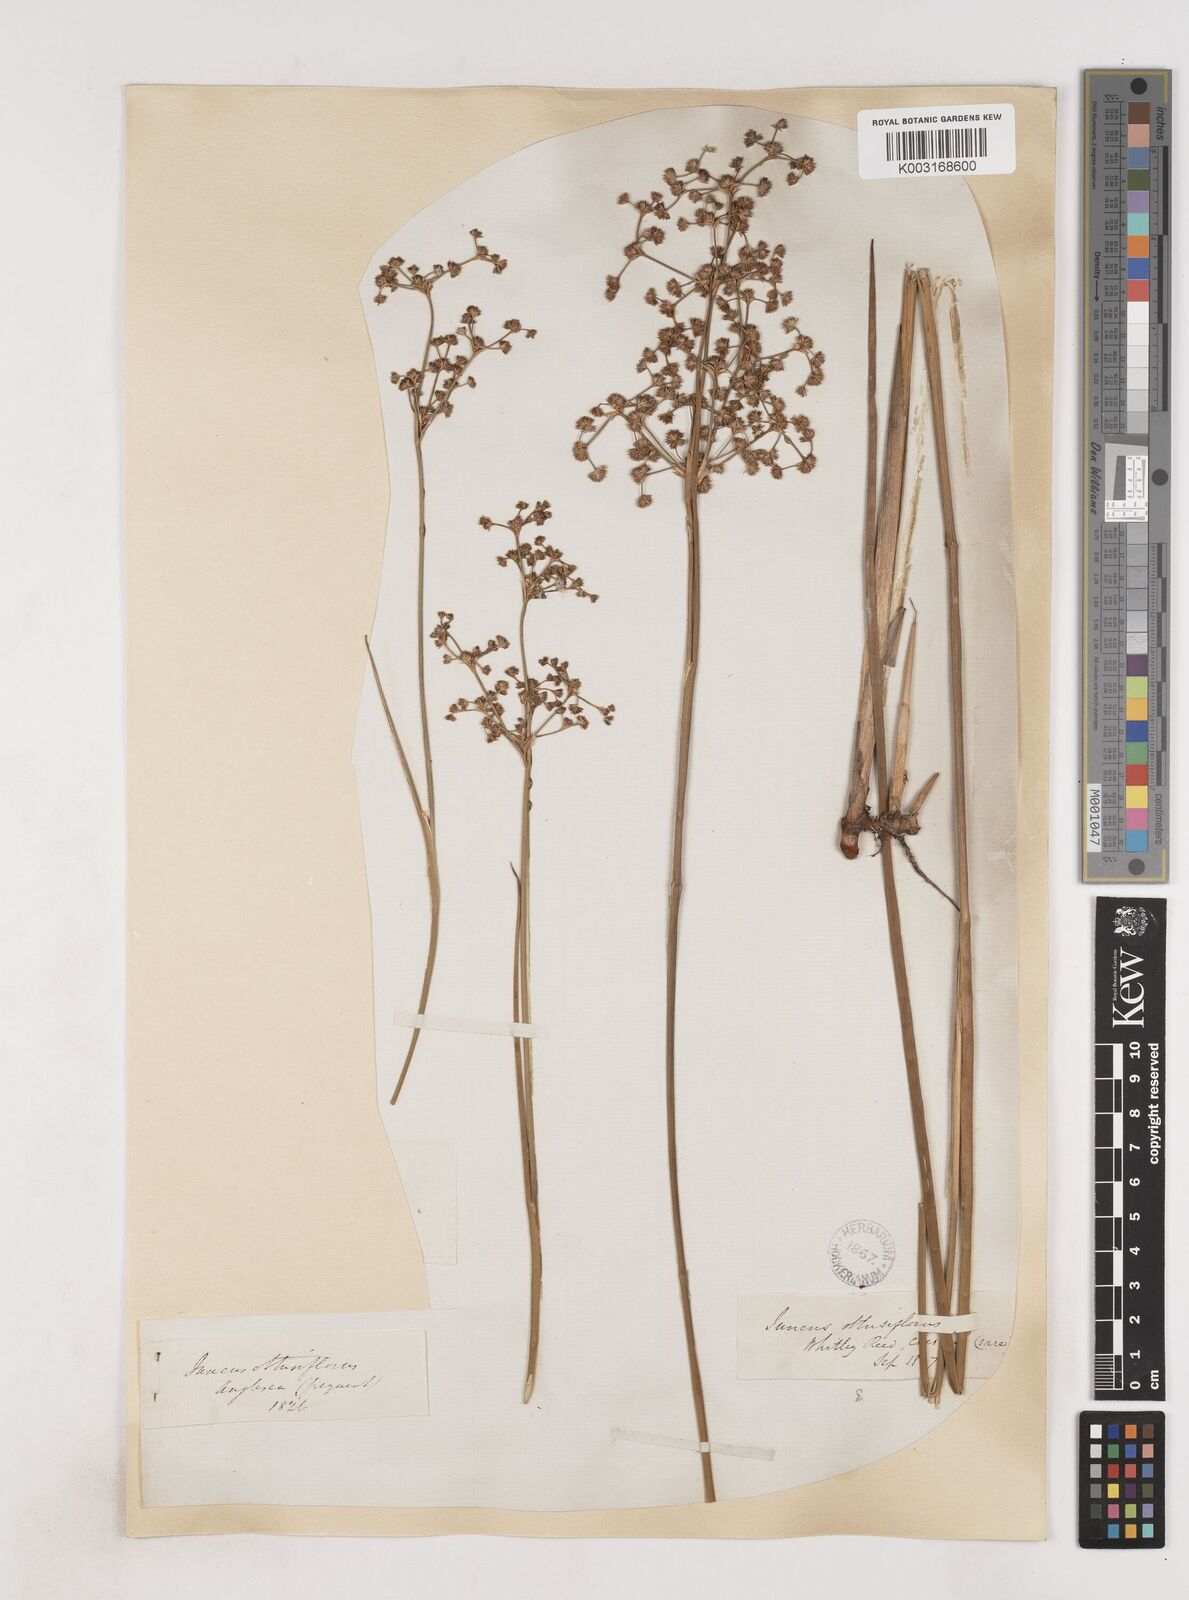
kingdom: Plantae
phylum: Tracheophyta
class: Liliopsida
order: Poales
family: Juncaceae
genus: Juncus
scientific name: Juncus subnodulosus
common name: Blunt-flowered rush
